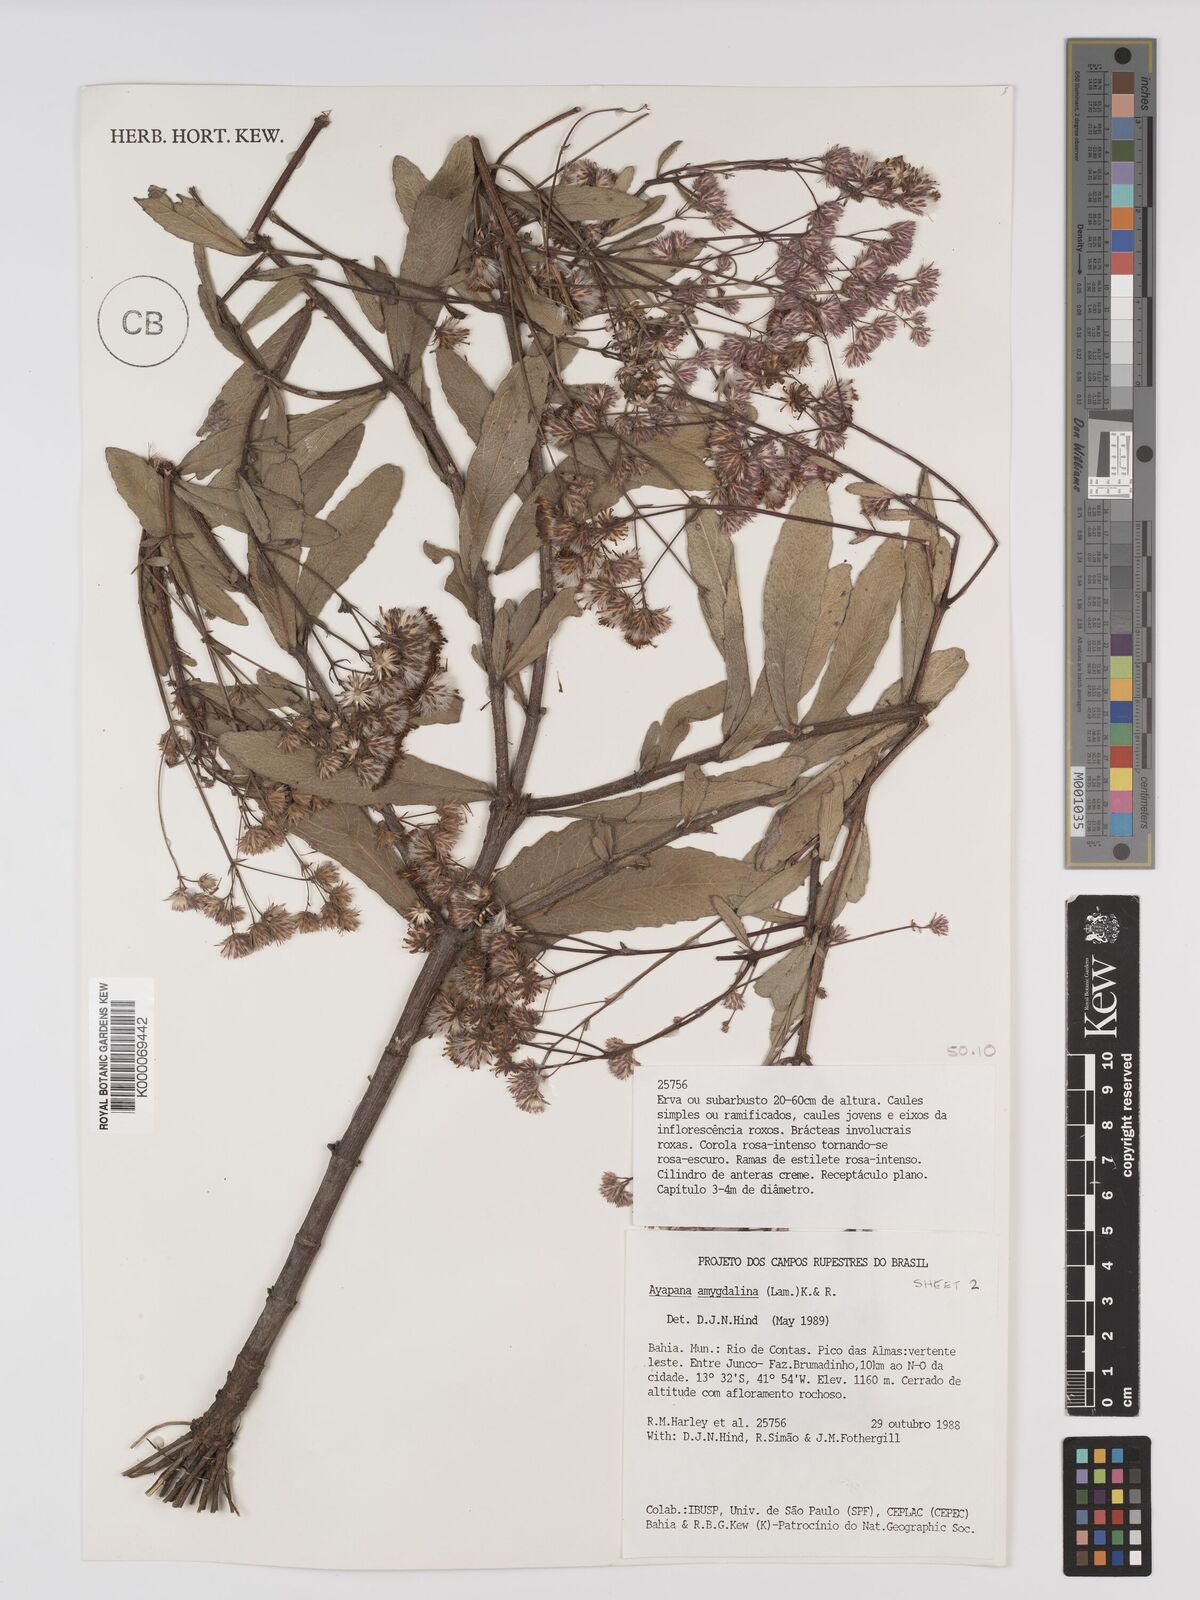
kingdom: Plantae
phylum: Tracheophyta
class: Magnoliopsida
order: Asterales
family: Asteraceae
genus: Ayapana
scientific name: Ayapana amygdalina
